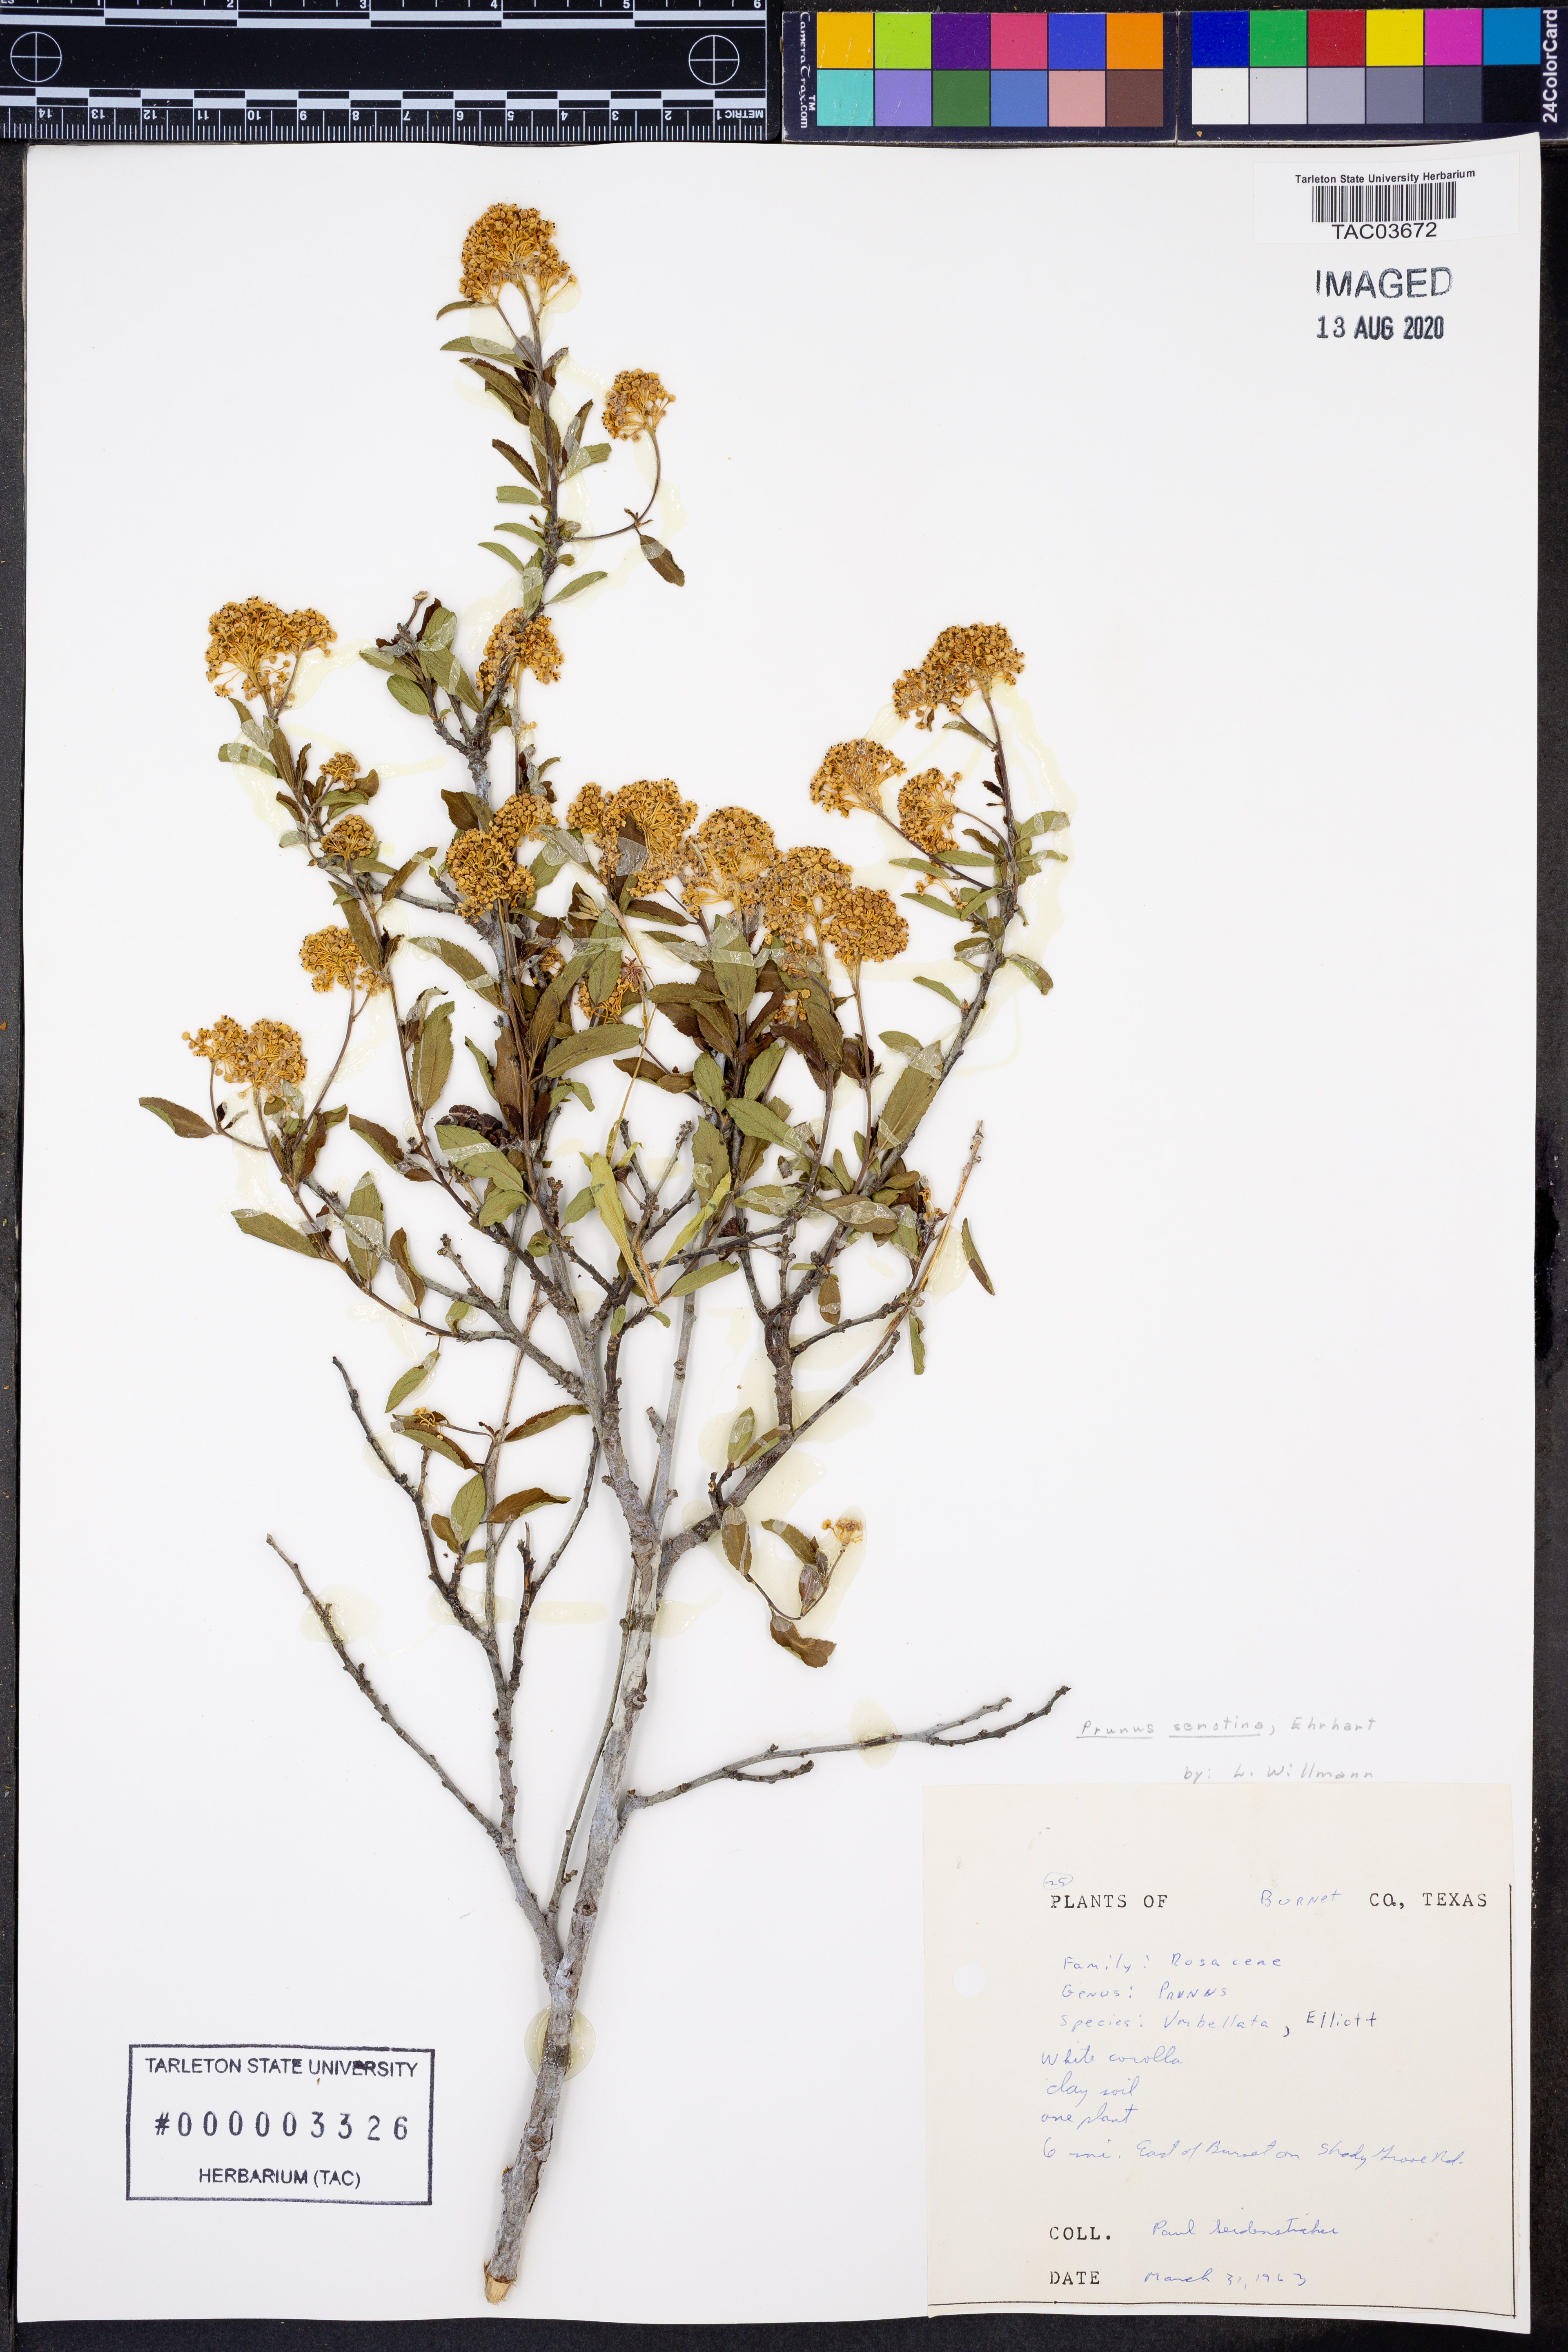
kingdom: Plantae
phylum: Tracheophyta
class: Magnoliopsida
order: Rosales
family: Rosaceae
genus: Prunus
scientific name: Prunus serotina
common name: Black cherry
